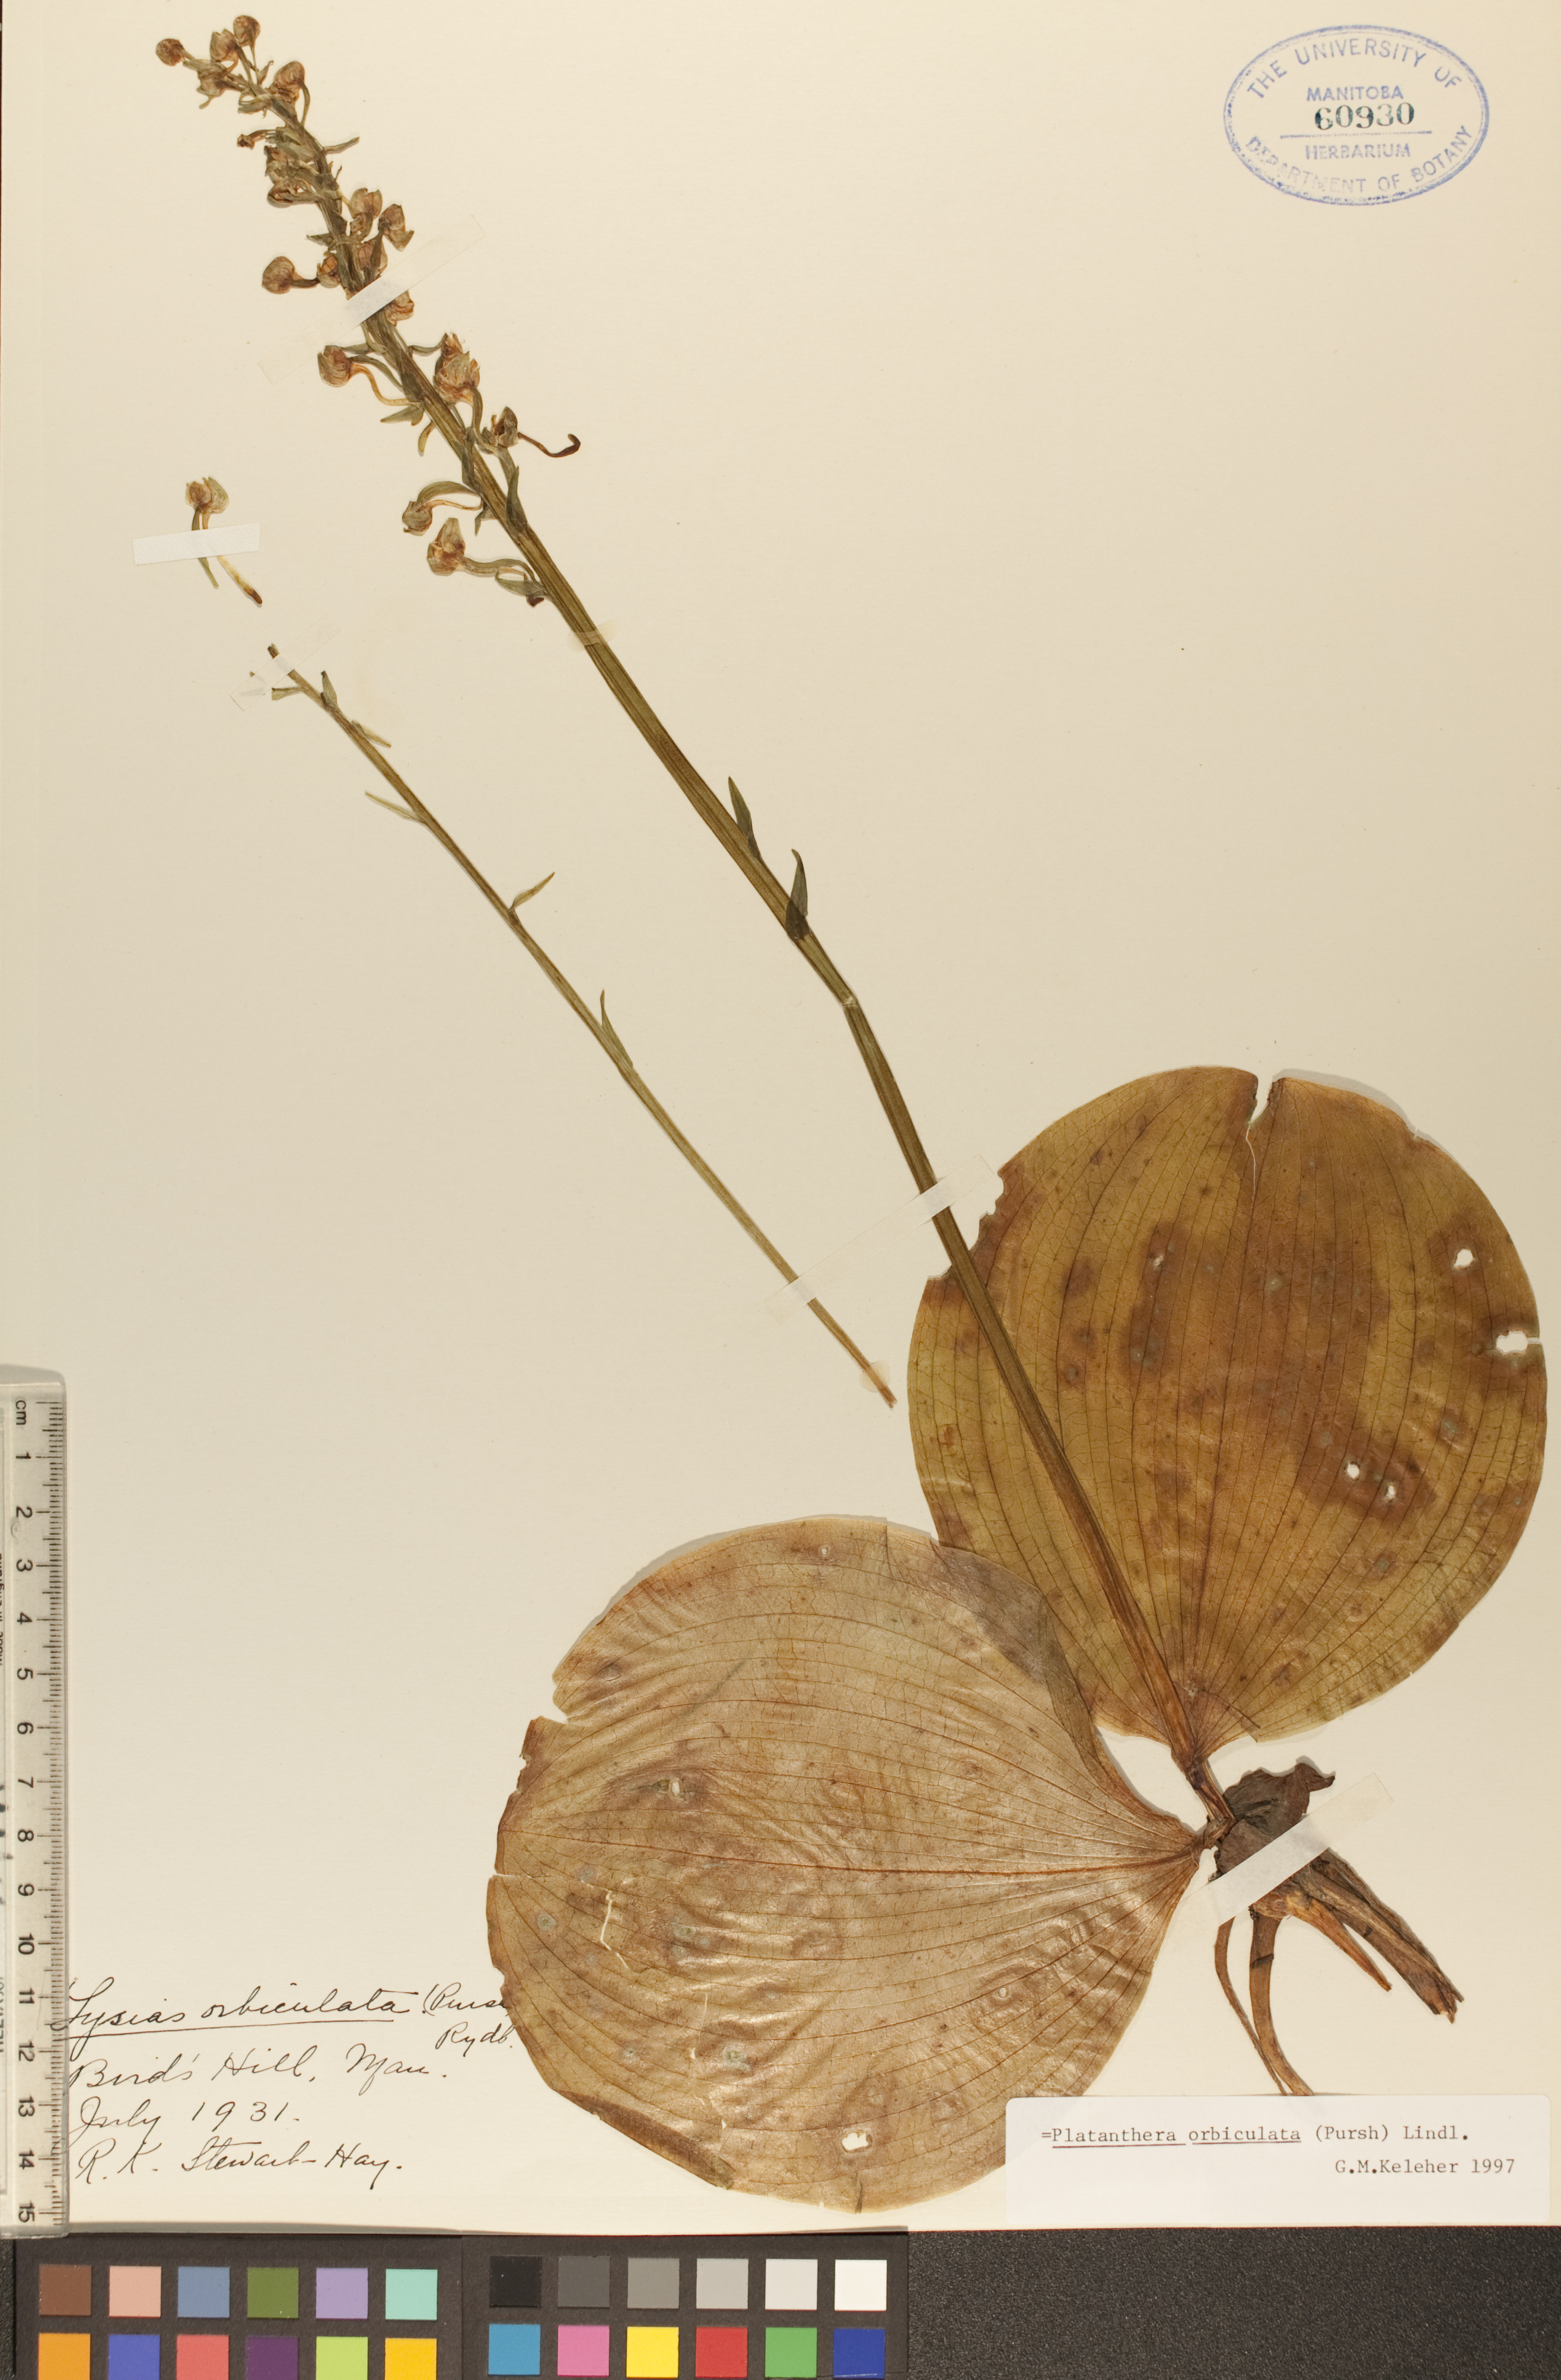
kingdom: Plantae
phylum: Tracheophyta
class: Liliopsida
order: Asparagales
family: Orchidaceae
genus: Platanthera
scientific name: Platanthera orbiculata
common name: Large round-leaved orchid
